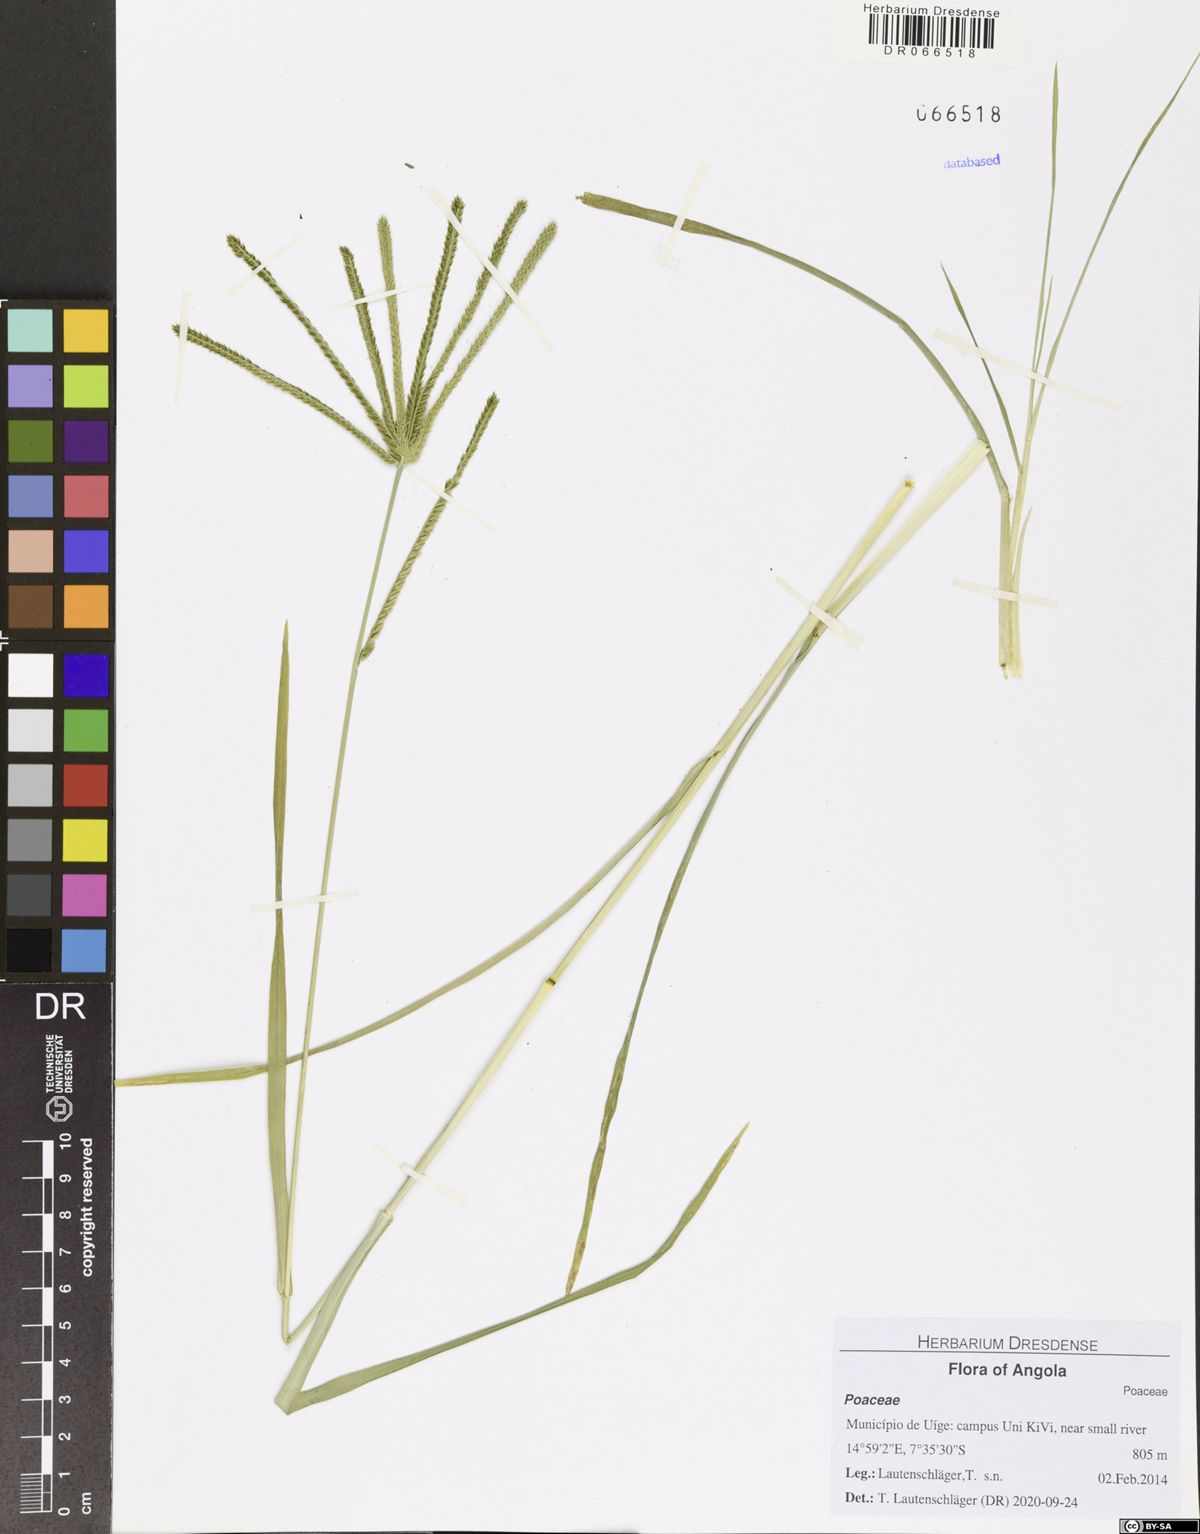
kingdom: Plantae
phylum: Tracheophyta
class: Liliopsida
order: Poales
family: Poaceae
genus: Eleusine
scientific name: Eleusine indica
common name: Yard-grass
